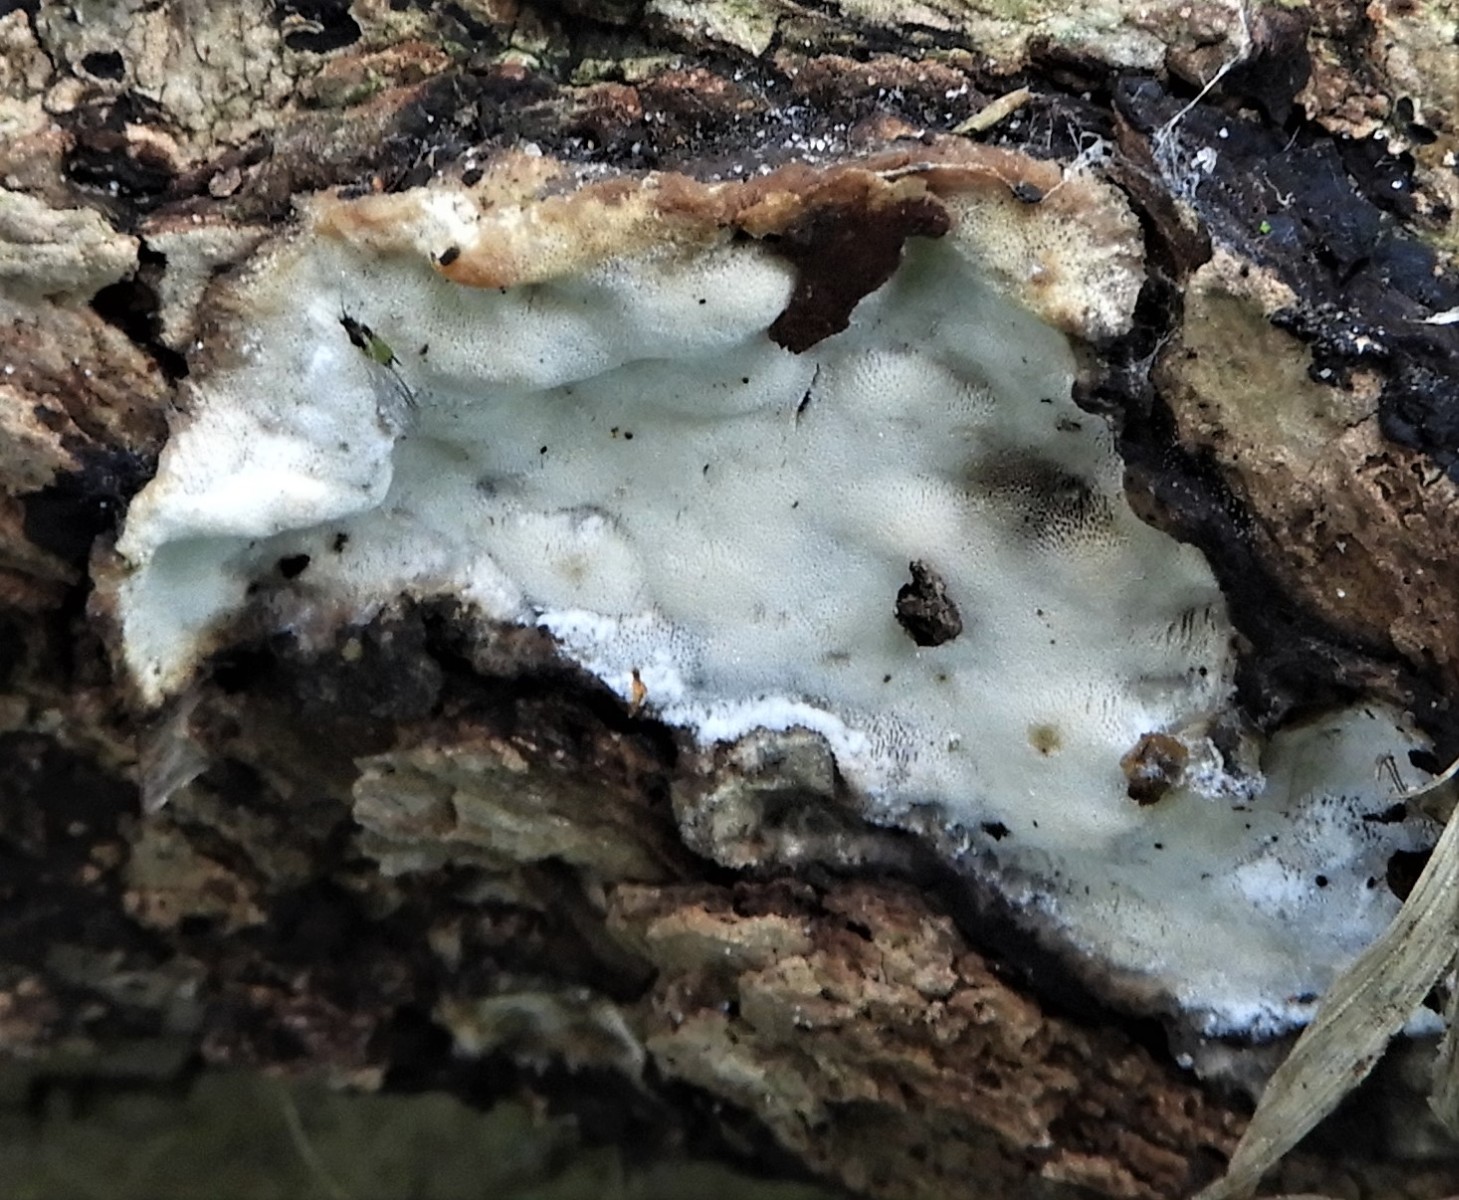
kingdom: Fungi
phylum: Basidiomycota
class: Agaricomycetes
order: Polyporales
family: Incrustoporiaceae
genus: Skeletocutis
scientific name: Skeletocutis nemoralis
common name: stor krystalporesvamp
